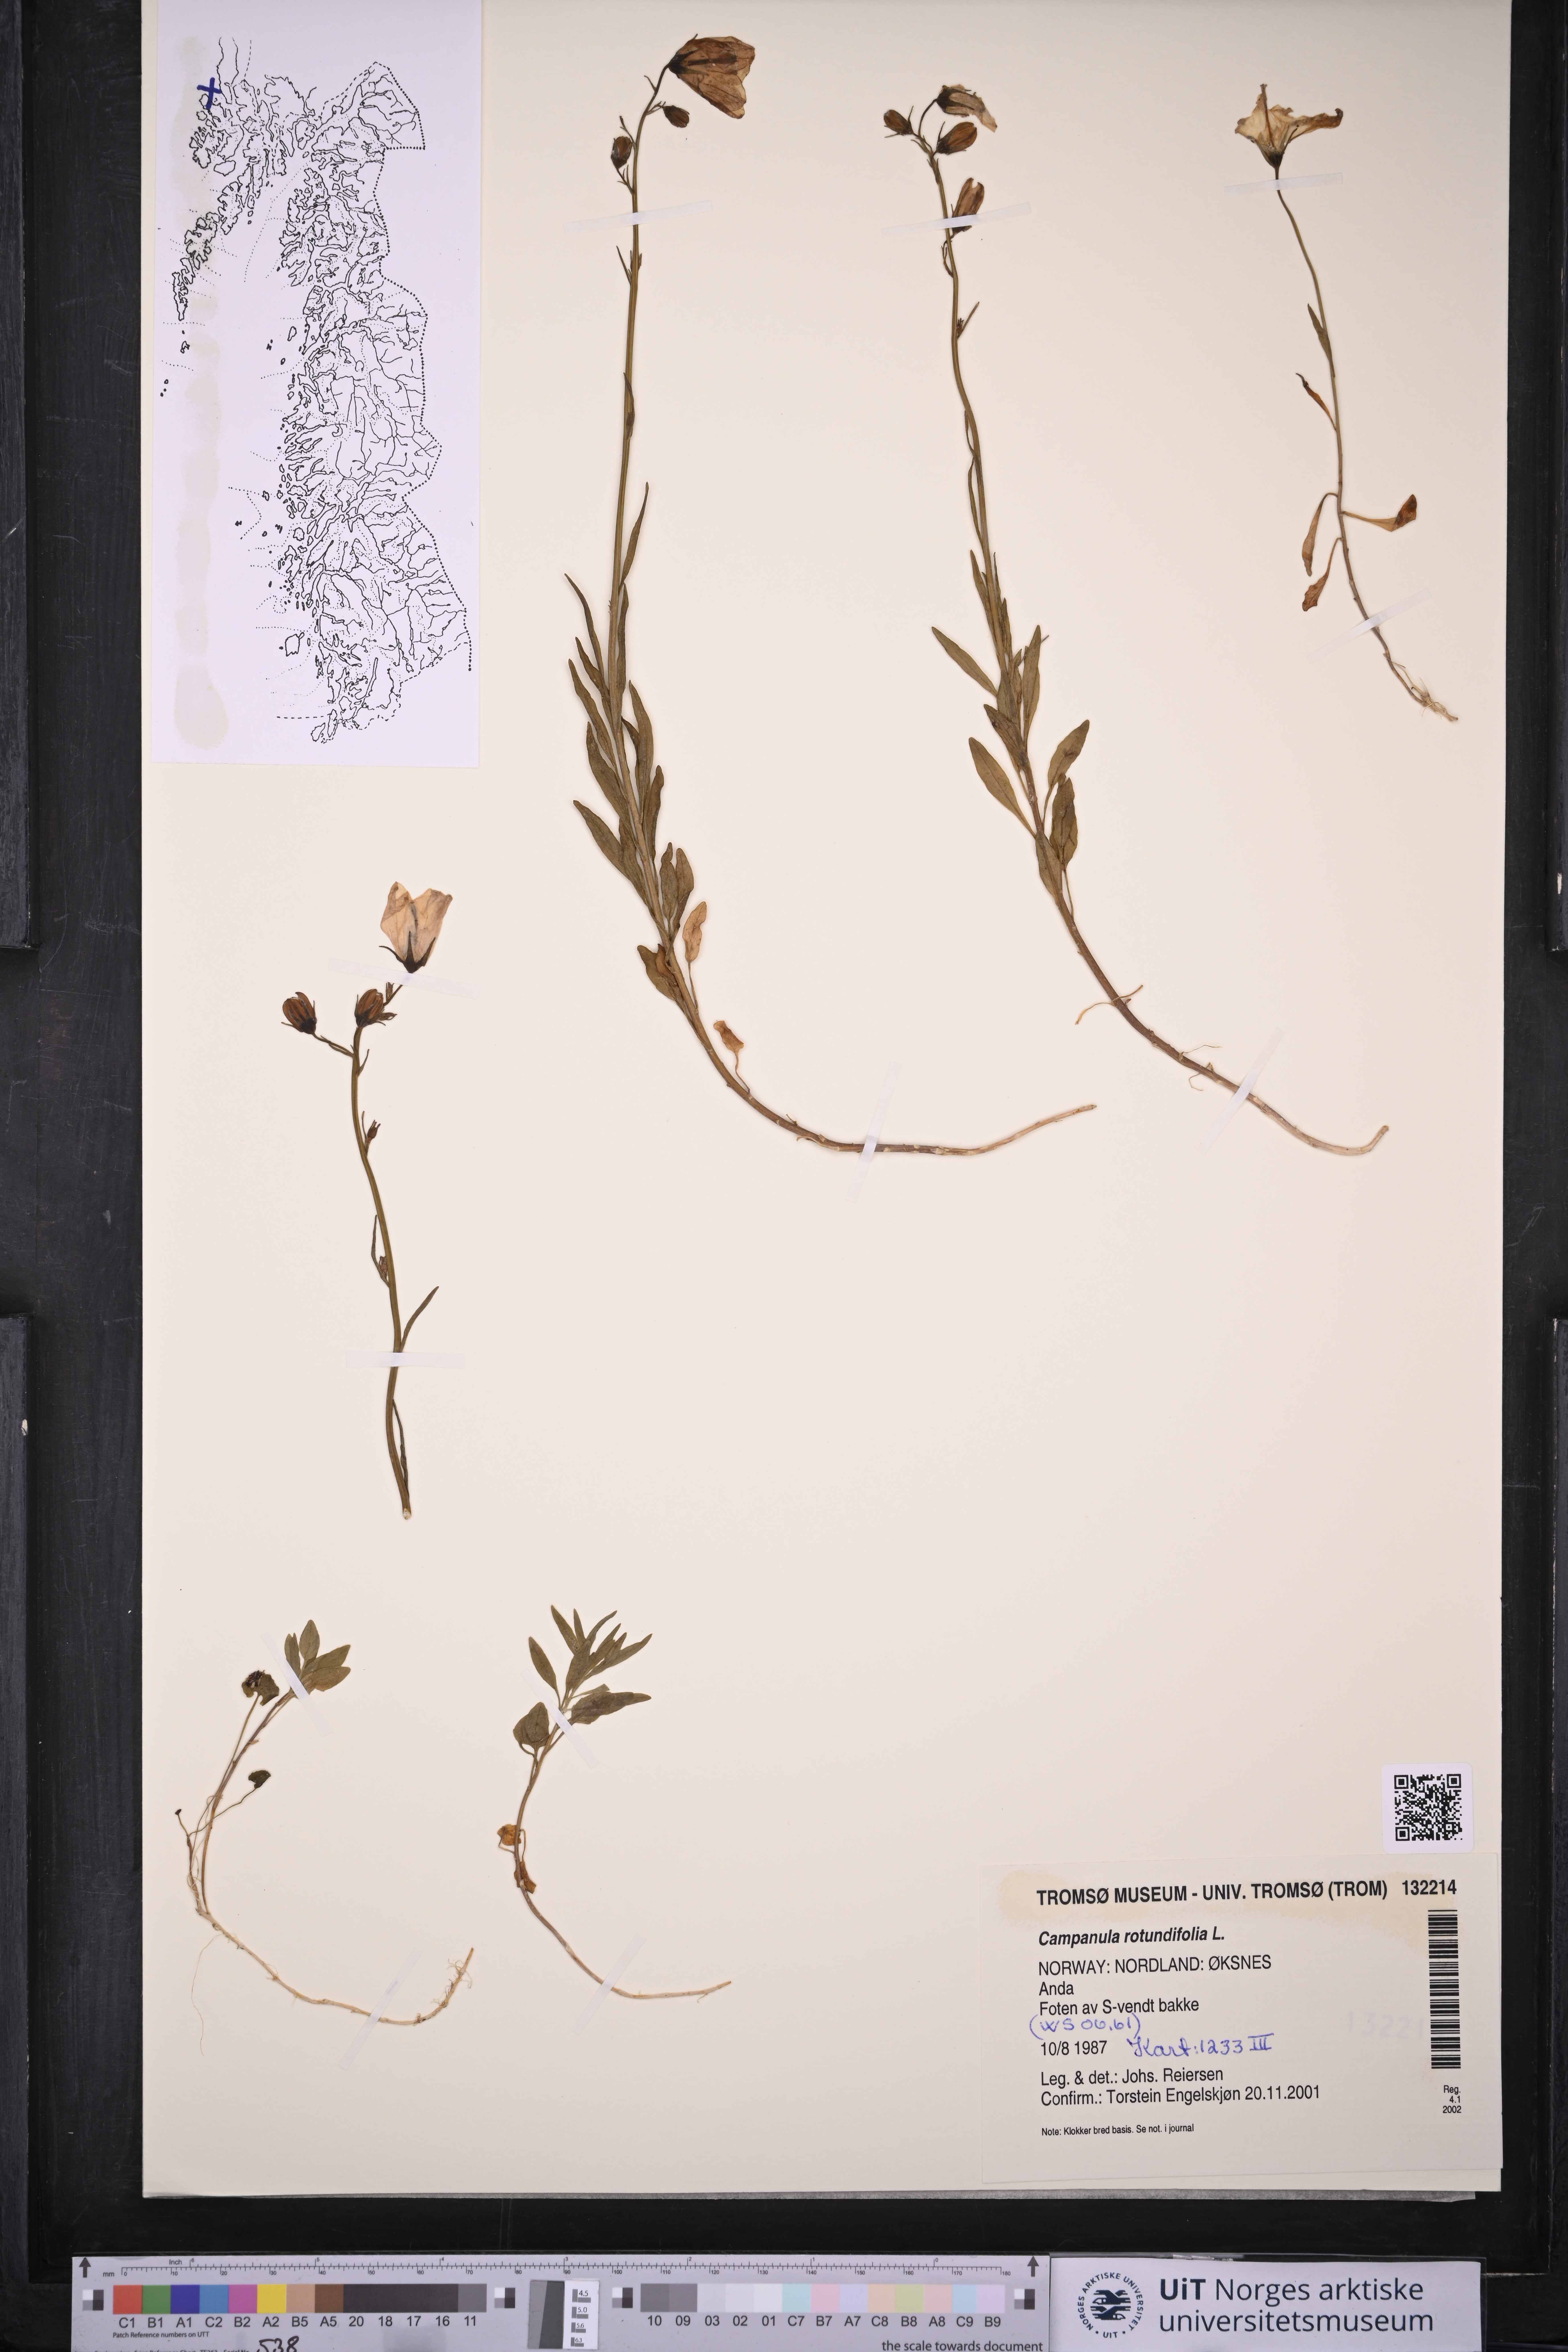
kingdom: Plantae
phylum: Tracheophyta
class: Magnoliopsida
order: Asterales
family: Campanulaceae
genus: Campanula
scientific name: Campanula rotundifolia
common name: Harebell
